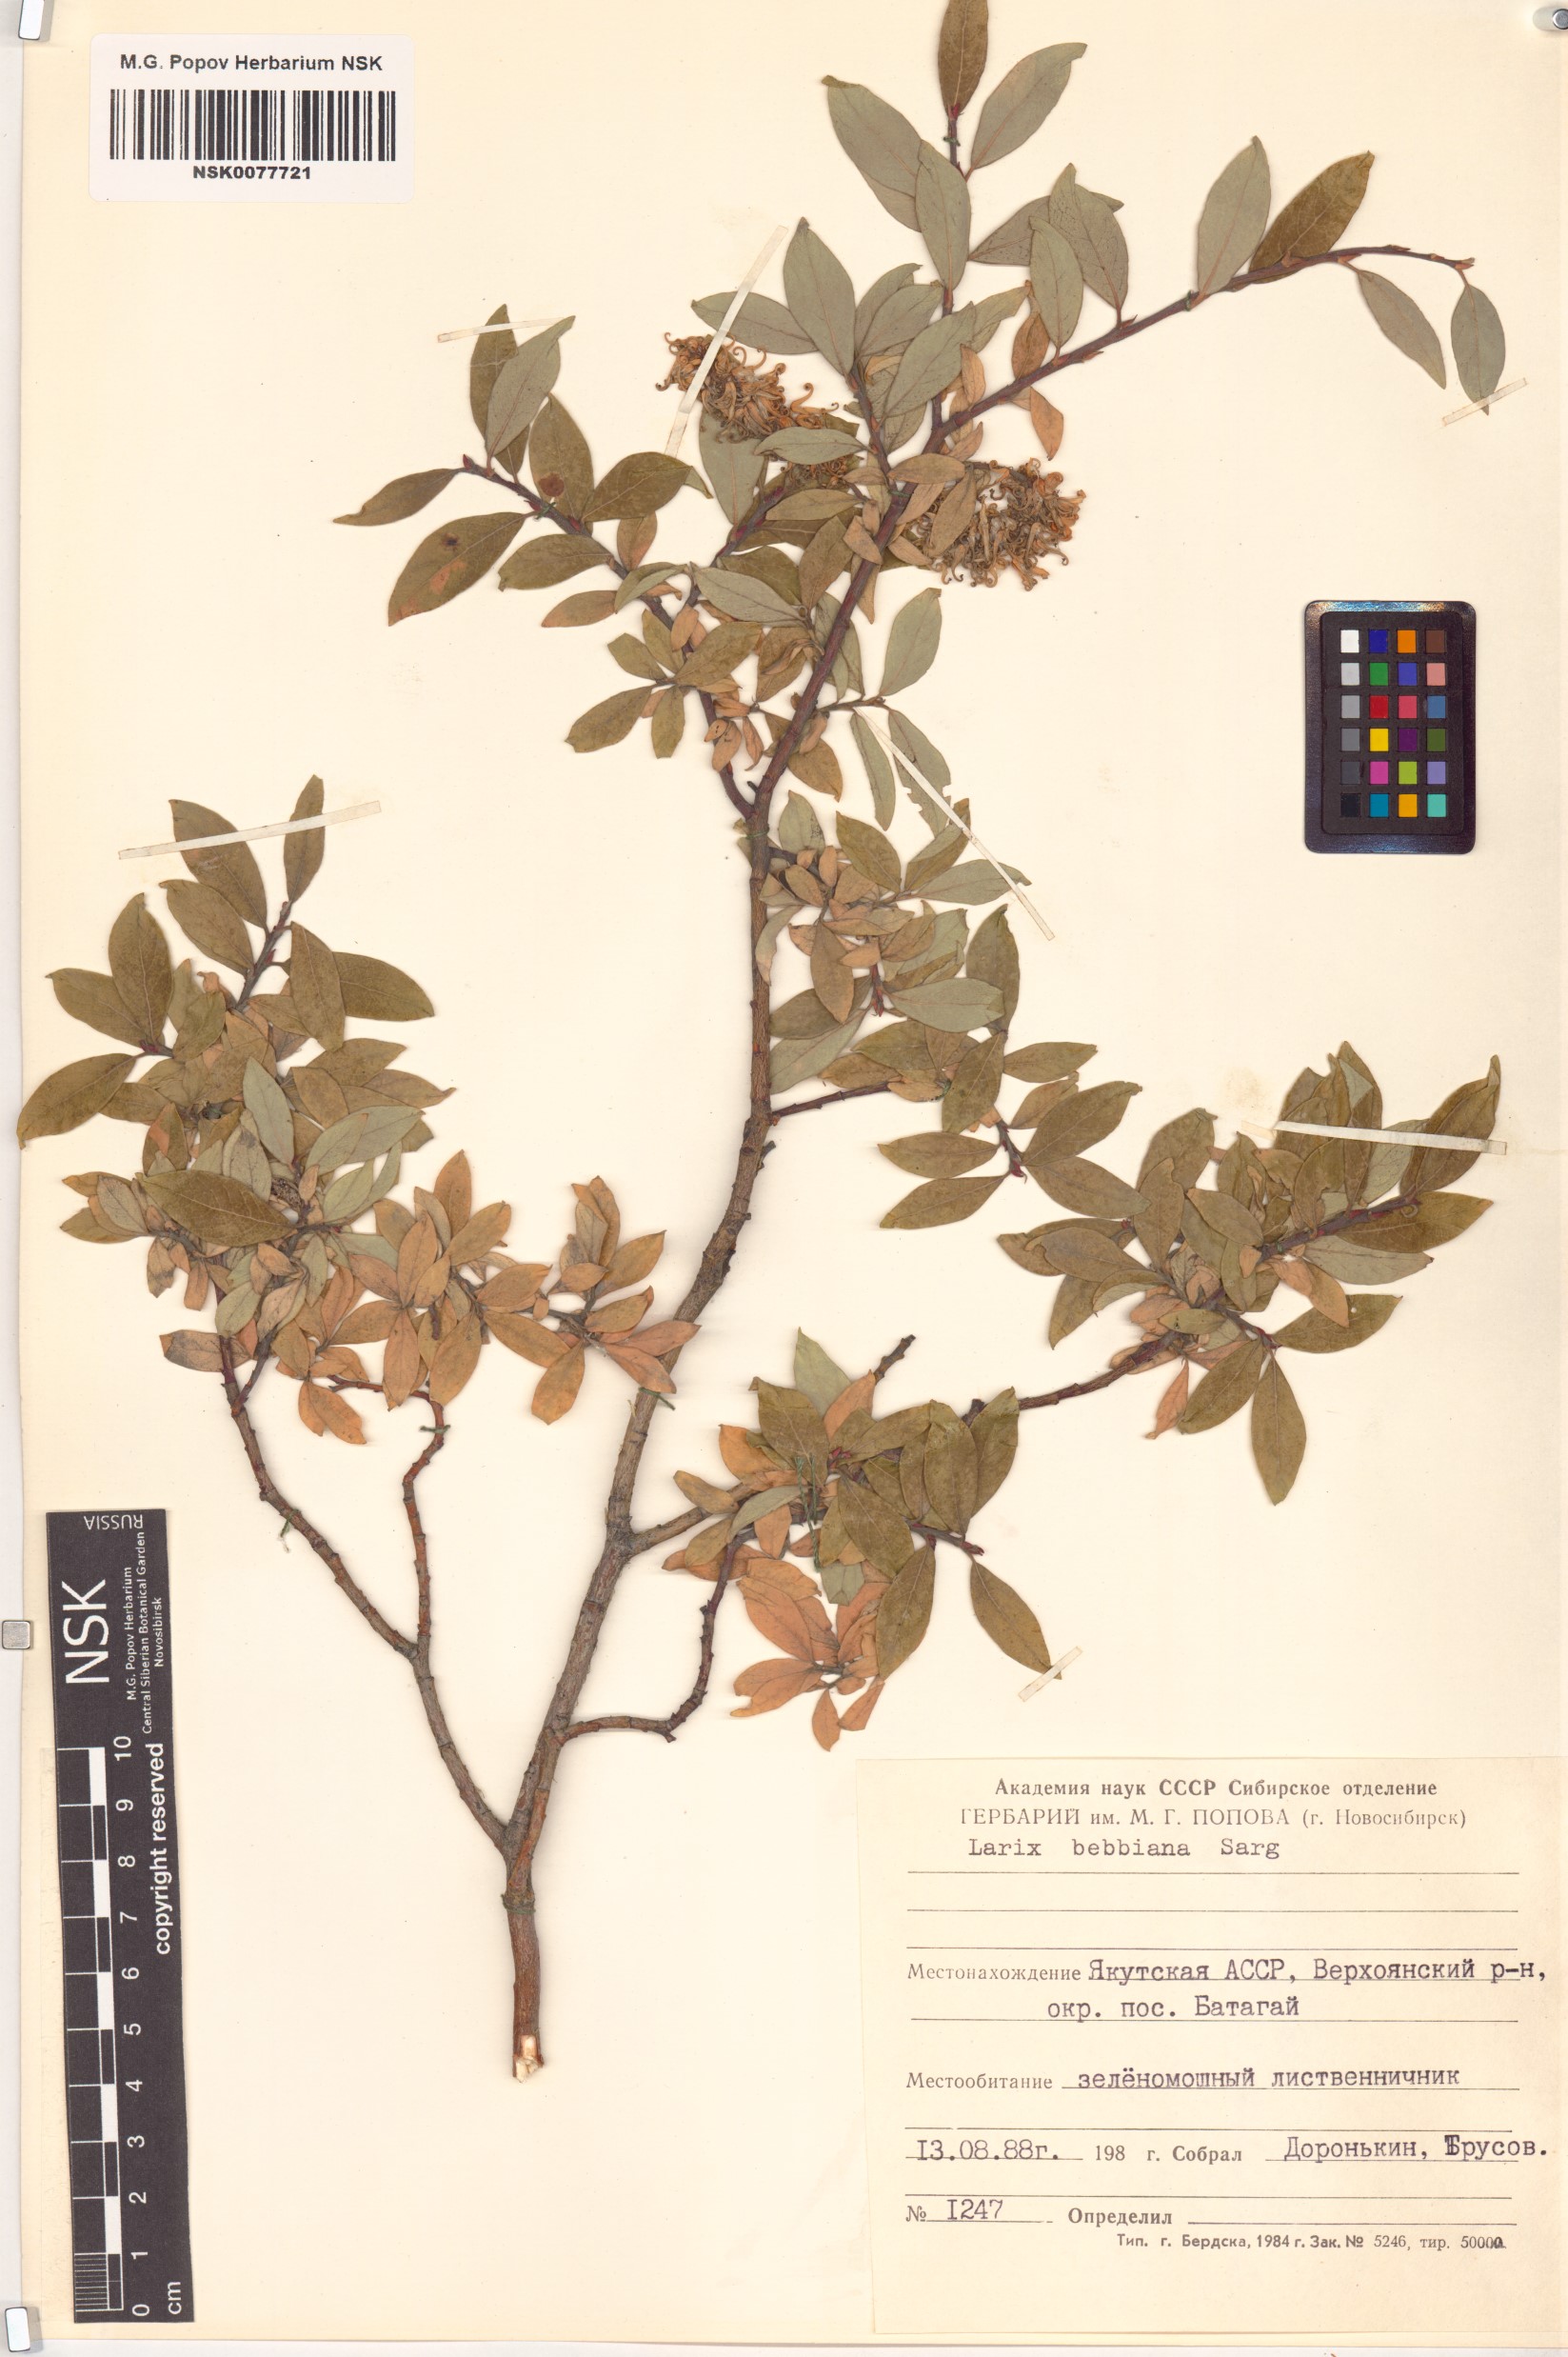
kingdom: Plantae
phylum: Tracheophyta
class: Magnoliopsida
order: Malpighiales
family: Salicaceae
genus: Salix
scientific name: Salix bebbiana
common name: Bebb's willow
